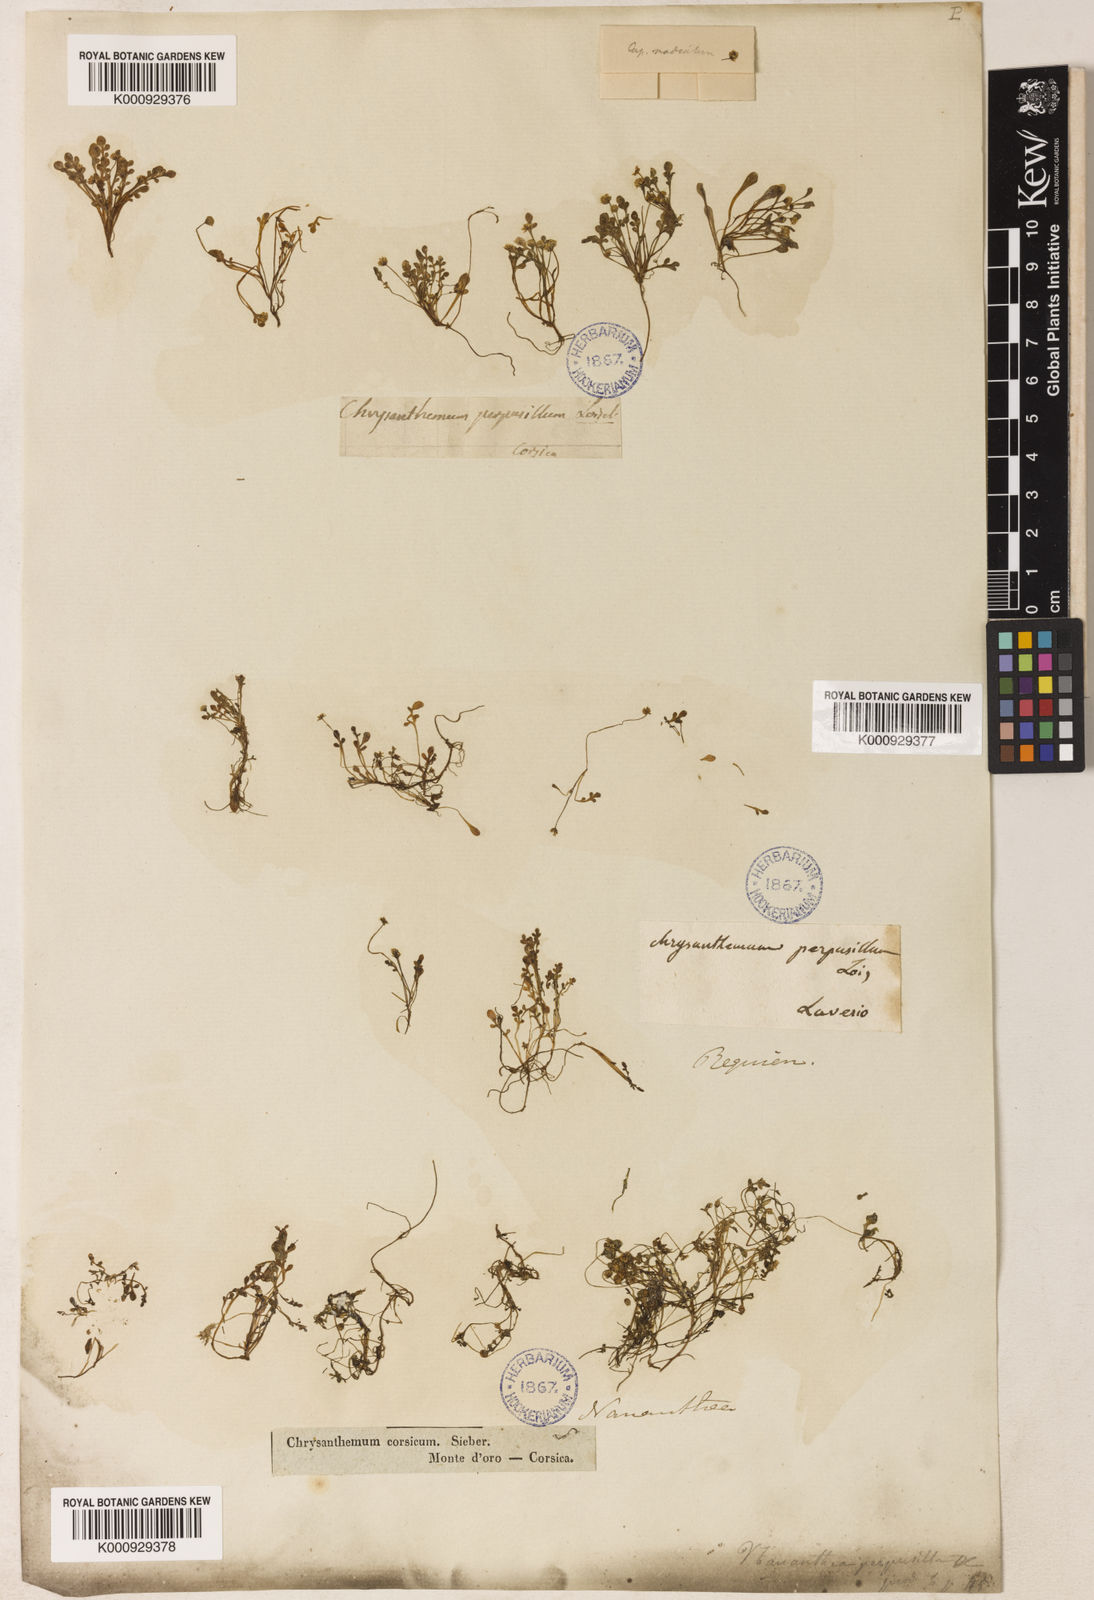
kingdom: Plantae
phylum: Tracheophyta
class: Magnoliopsida
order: Asterales
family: Asteraceae
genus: Nananthea
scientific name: Nananthea perpusilla
